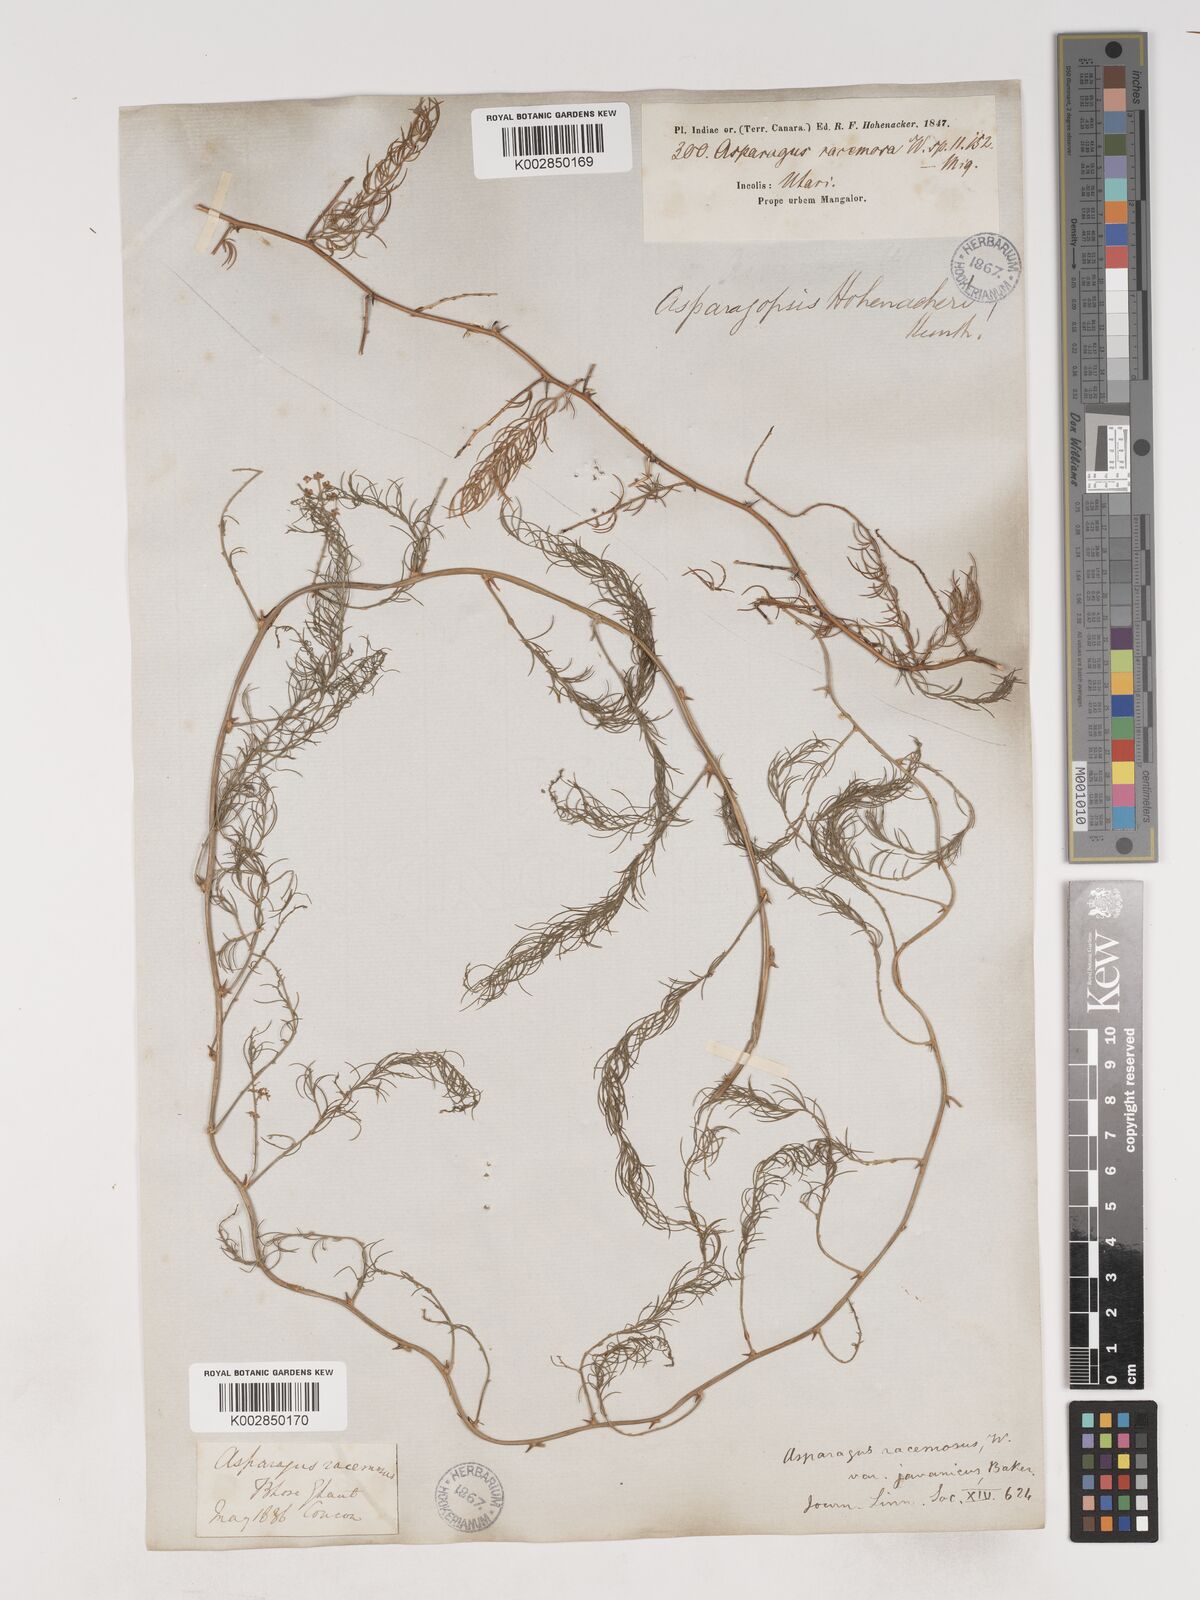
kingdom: Plantae
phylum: Tracheophyta
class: Liliopsida
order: Asparagales
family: Asparagaceae
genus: Asparagus
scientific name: Asparagus racemosus
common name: Asparagus-fern
